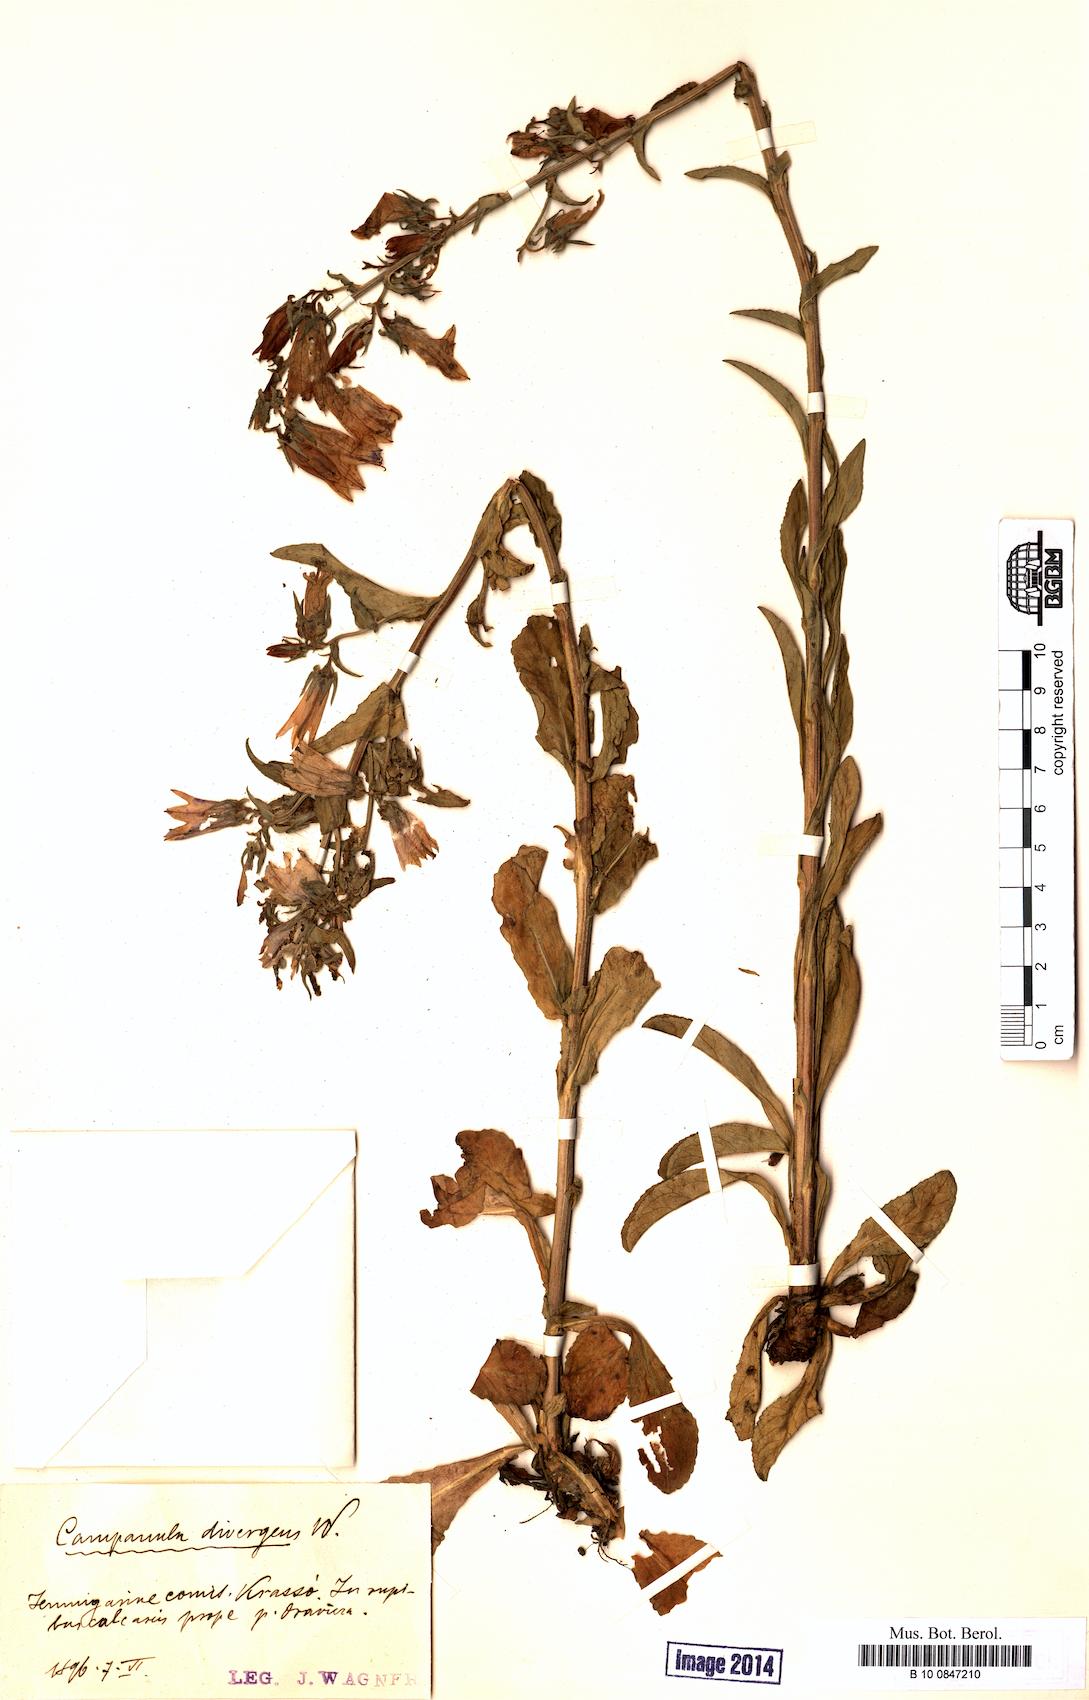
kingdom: Plantae
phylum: Tracheophyta
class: Magnoliopsida
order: Asterales
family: Campanulaceae
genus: Campanula
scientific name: Campanula sibirica
